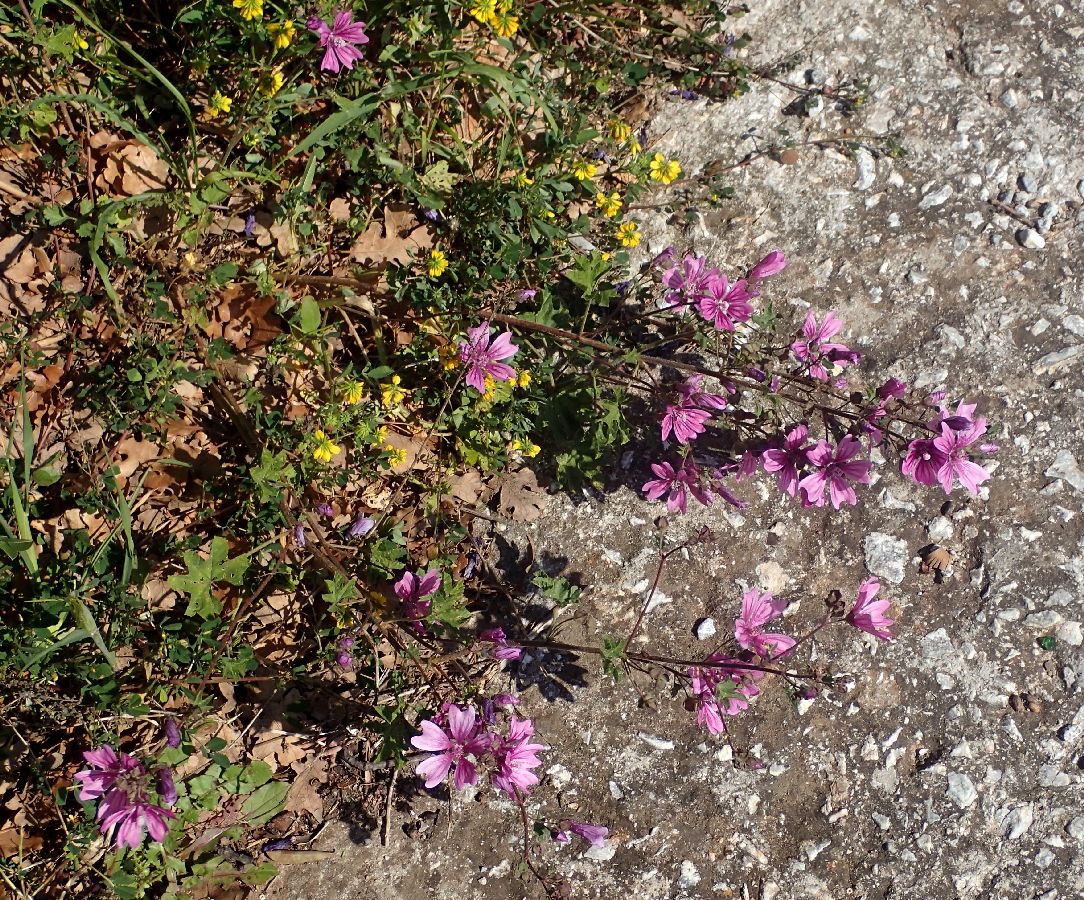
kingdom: Plantae
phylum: Tracheophyta
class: Magnoliopsida
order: Malvales
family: Malvaceae
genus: Malva
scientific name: Malva sylvestris
